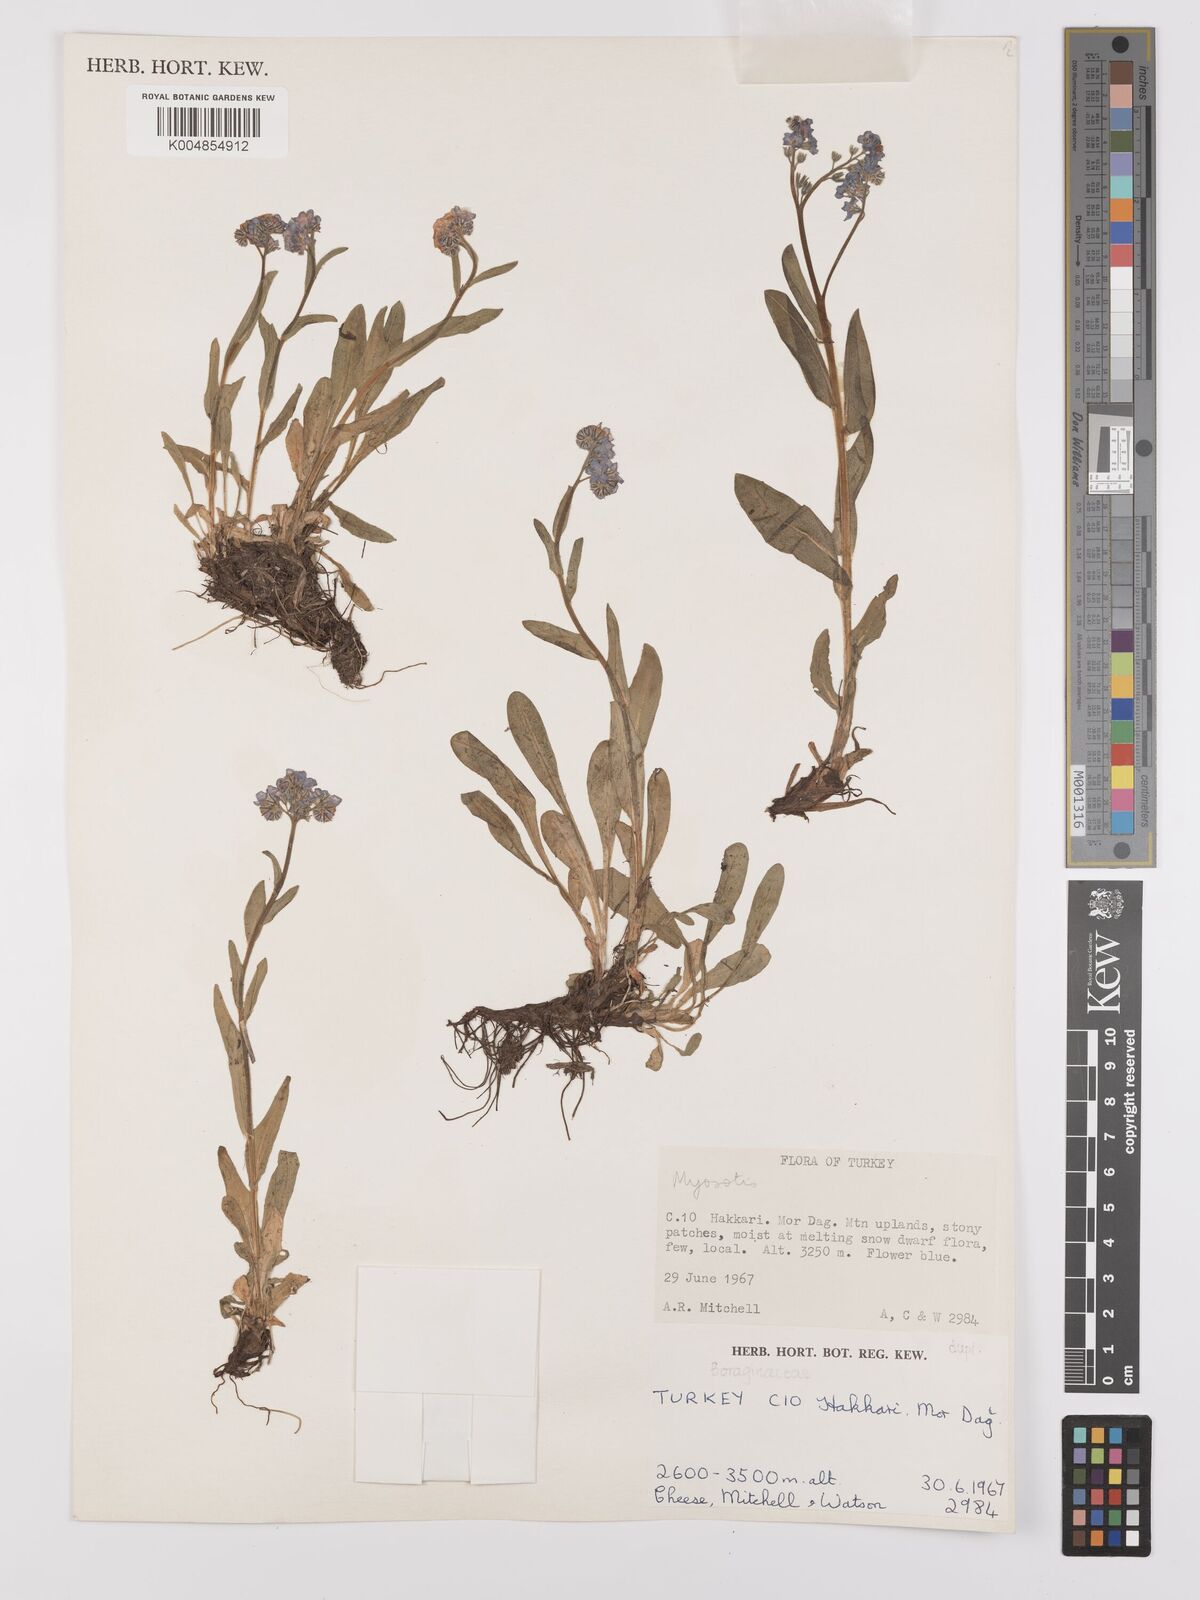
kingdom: Plantae
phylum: Tracheophyta
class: Magnoliopsida
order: Boraginales
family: Boraginaceae
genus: Myosotis
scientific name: Myosotis
